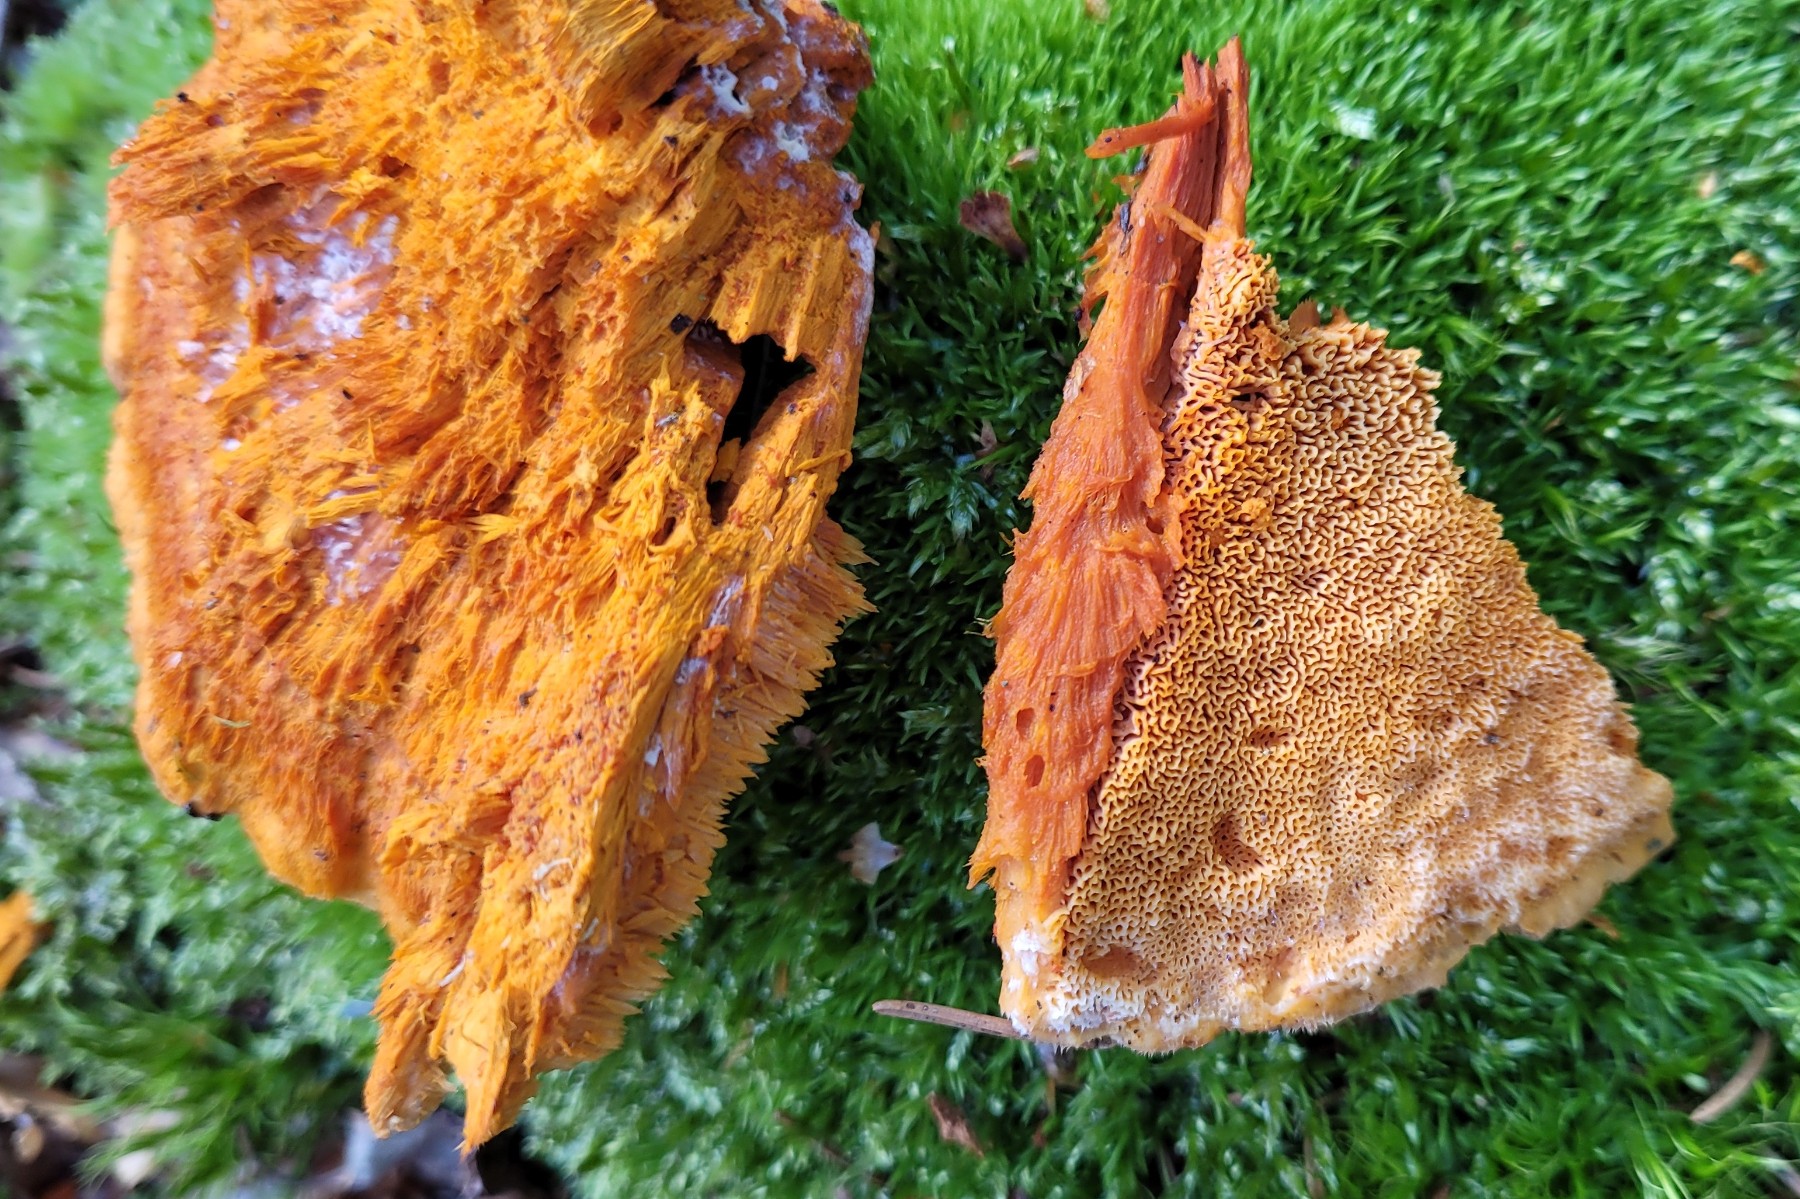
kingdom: Fungi
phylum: Basidiomycota
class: Agaricomycetes
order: Polyporales
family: Pycnoporellaceae
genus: Pycnoporellus
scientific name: Pycnoporellus fulgens
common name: flammeporesvamp
